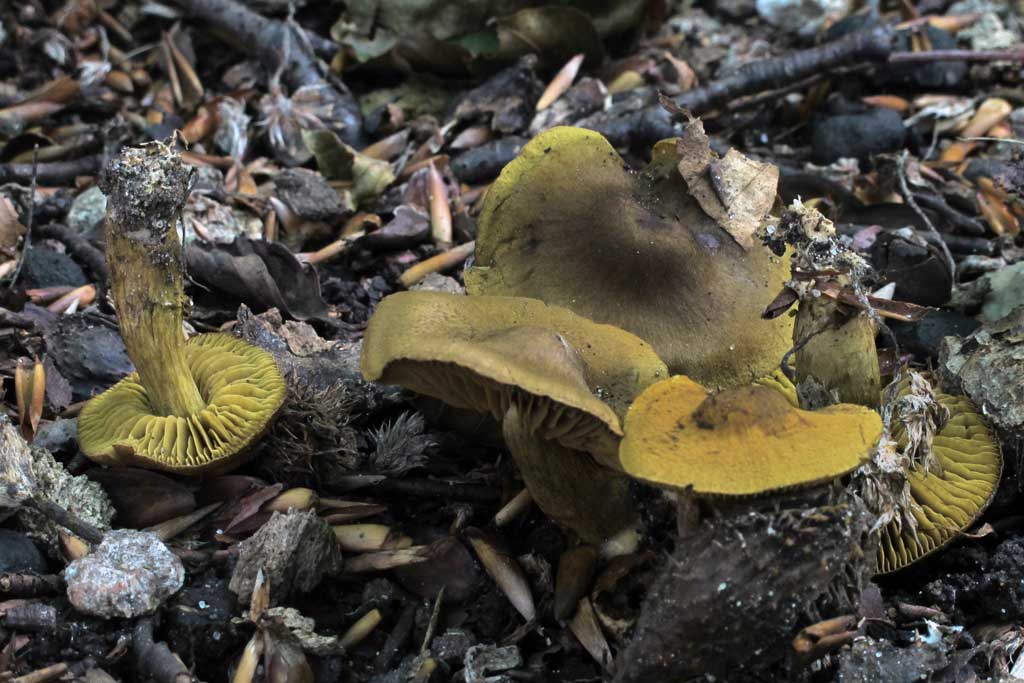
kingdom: Fungi
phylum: Basidiomycota
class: Agaricomycetes
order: Agaricales
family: Cortinariaceae
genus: Cortinarius
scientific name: Cortinarius olivaceofuscus
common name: olivenbrun slørhat
